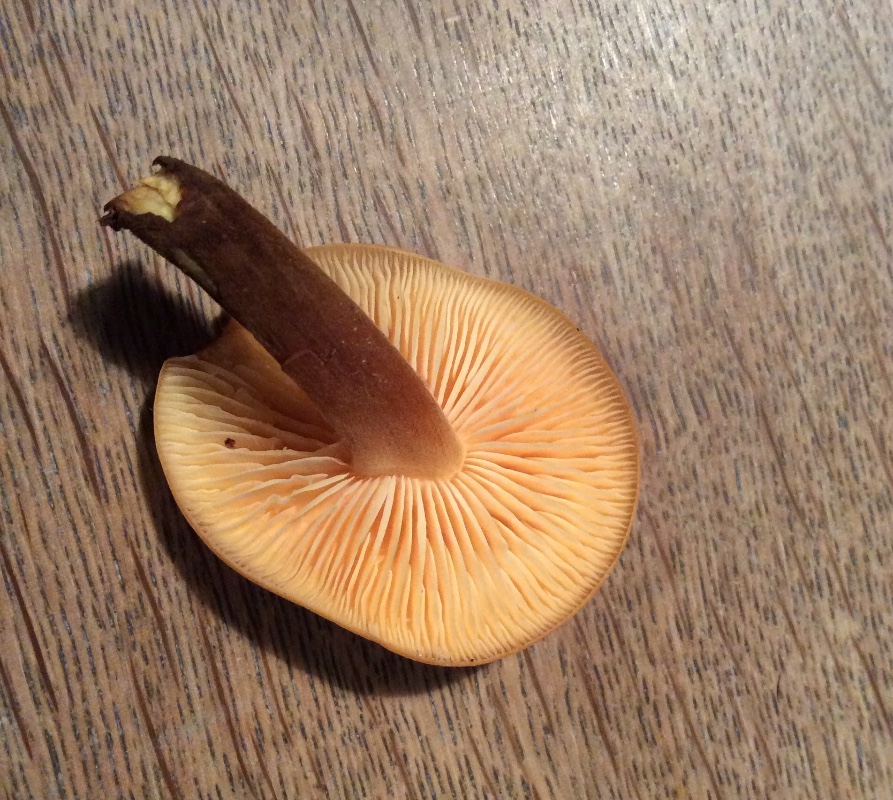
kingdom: Fungi
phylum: Basidiomycota
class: Agaricomycetes
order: Agaricales
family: Physalacriaceae
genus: Flammulina
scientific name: Flammulina velutipes
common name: gul fløjlsfod
